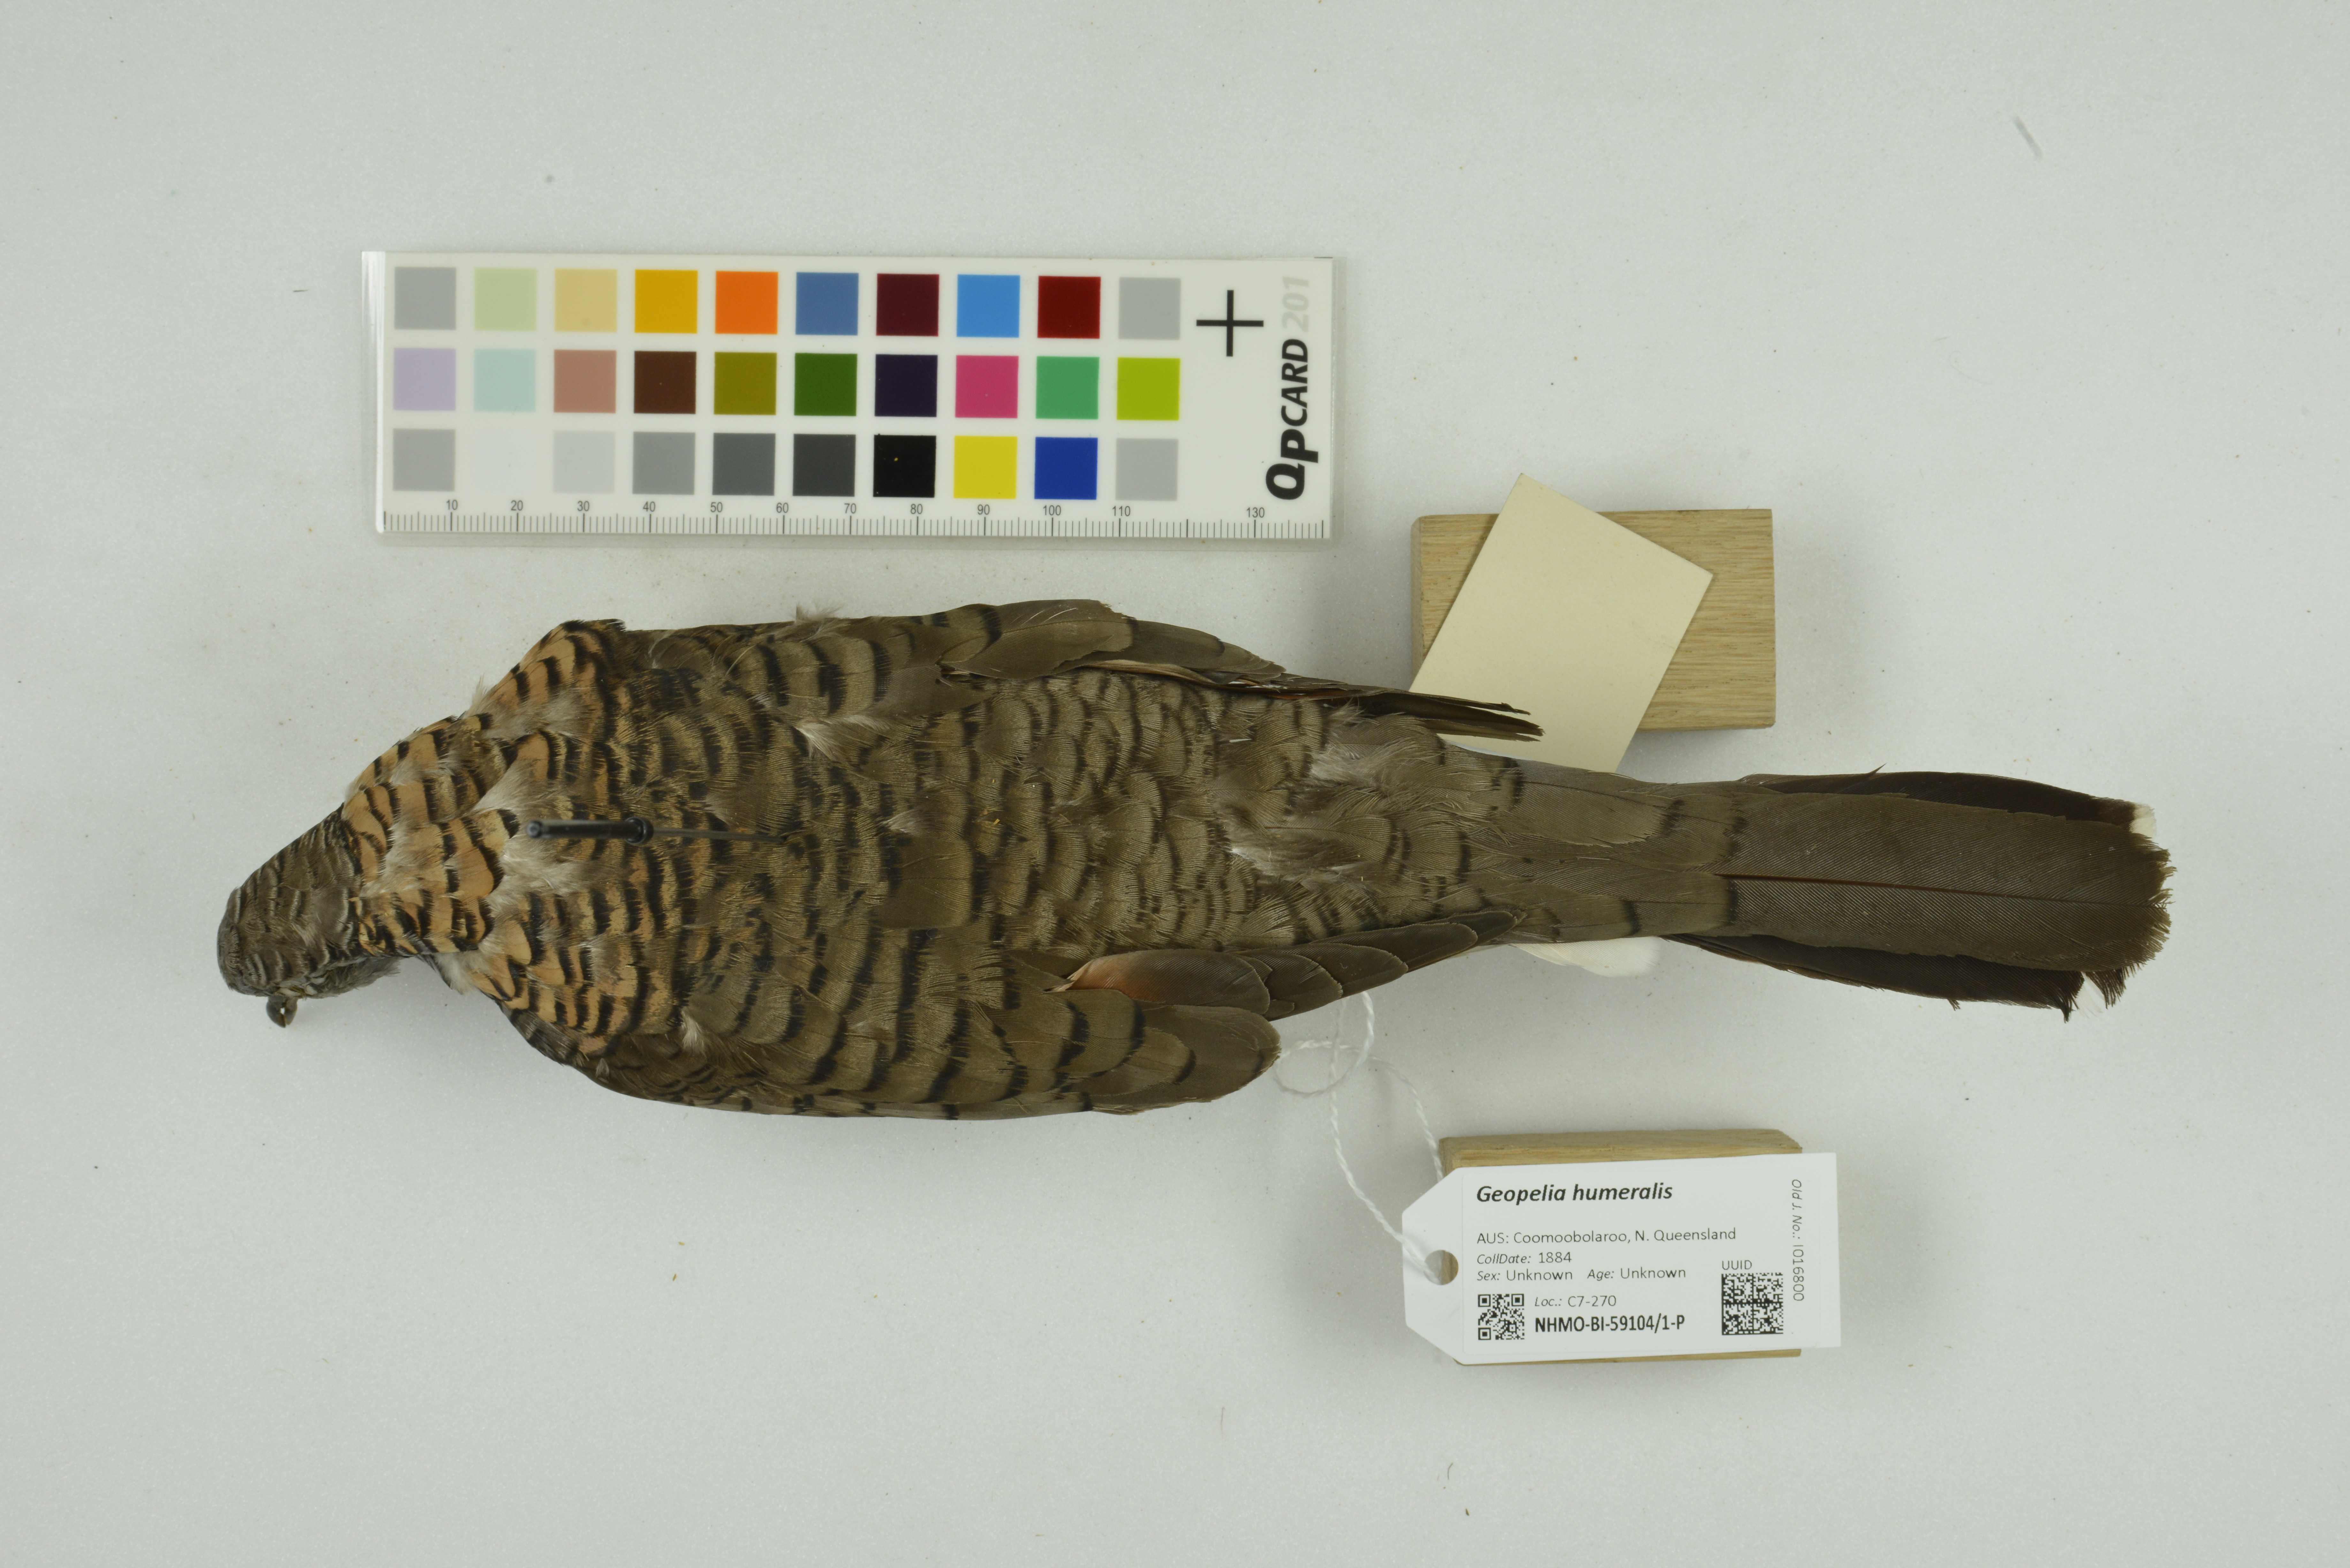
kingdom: Animalia
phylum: Chordata
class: Aves
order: Columbiformes
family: Columbidae
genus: Geopelia
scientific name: Geopelia humeralis
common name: Bar-shouldered dove
